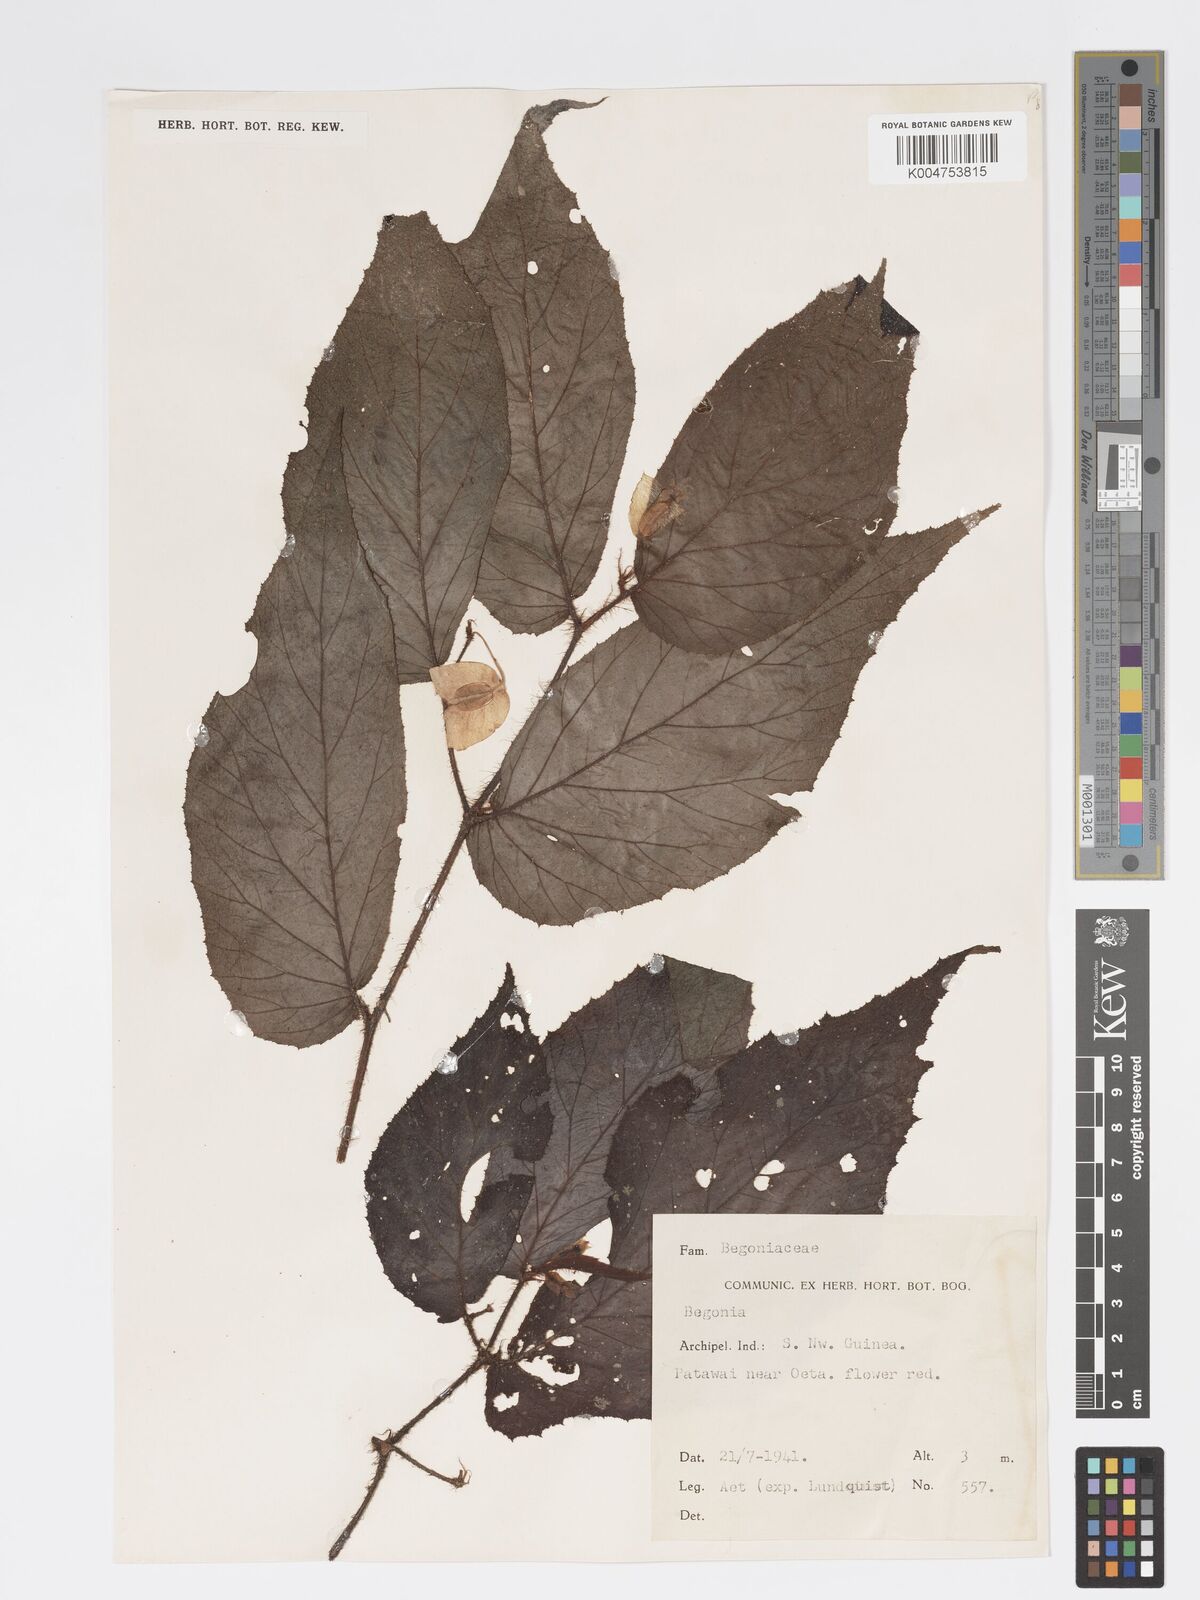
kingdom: Plantae
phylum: Tracheophyta
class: Magnoliopsida
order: Cucurbitales
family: Begoniaceae
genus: Begonia
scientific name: Begonia torricellensis
